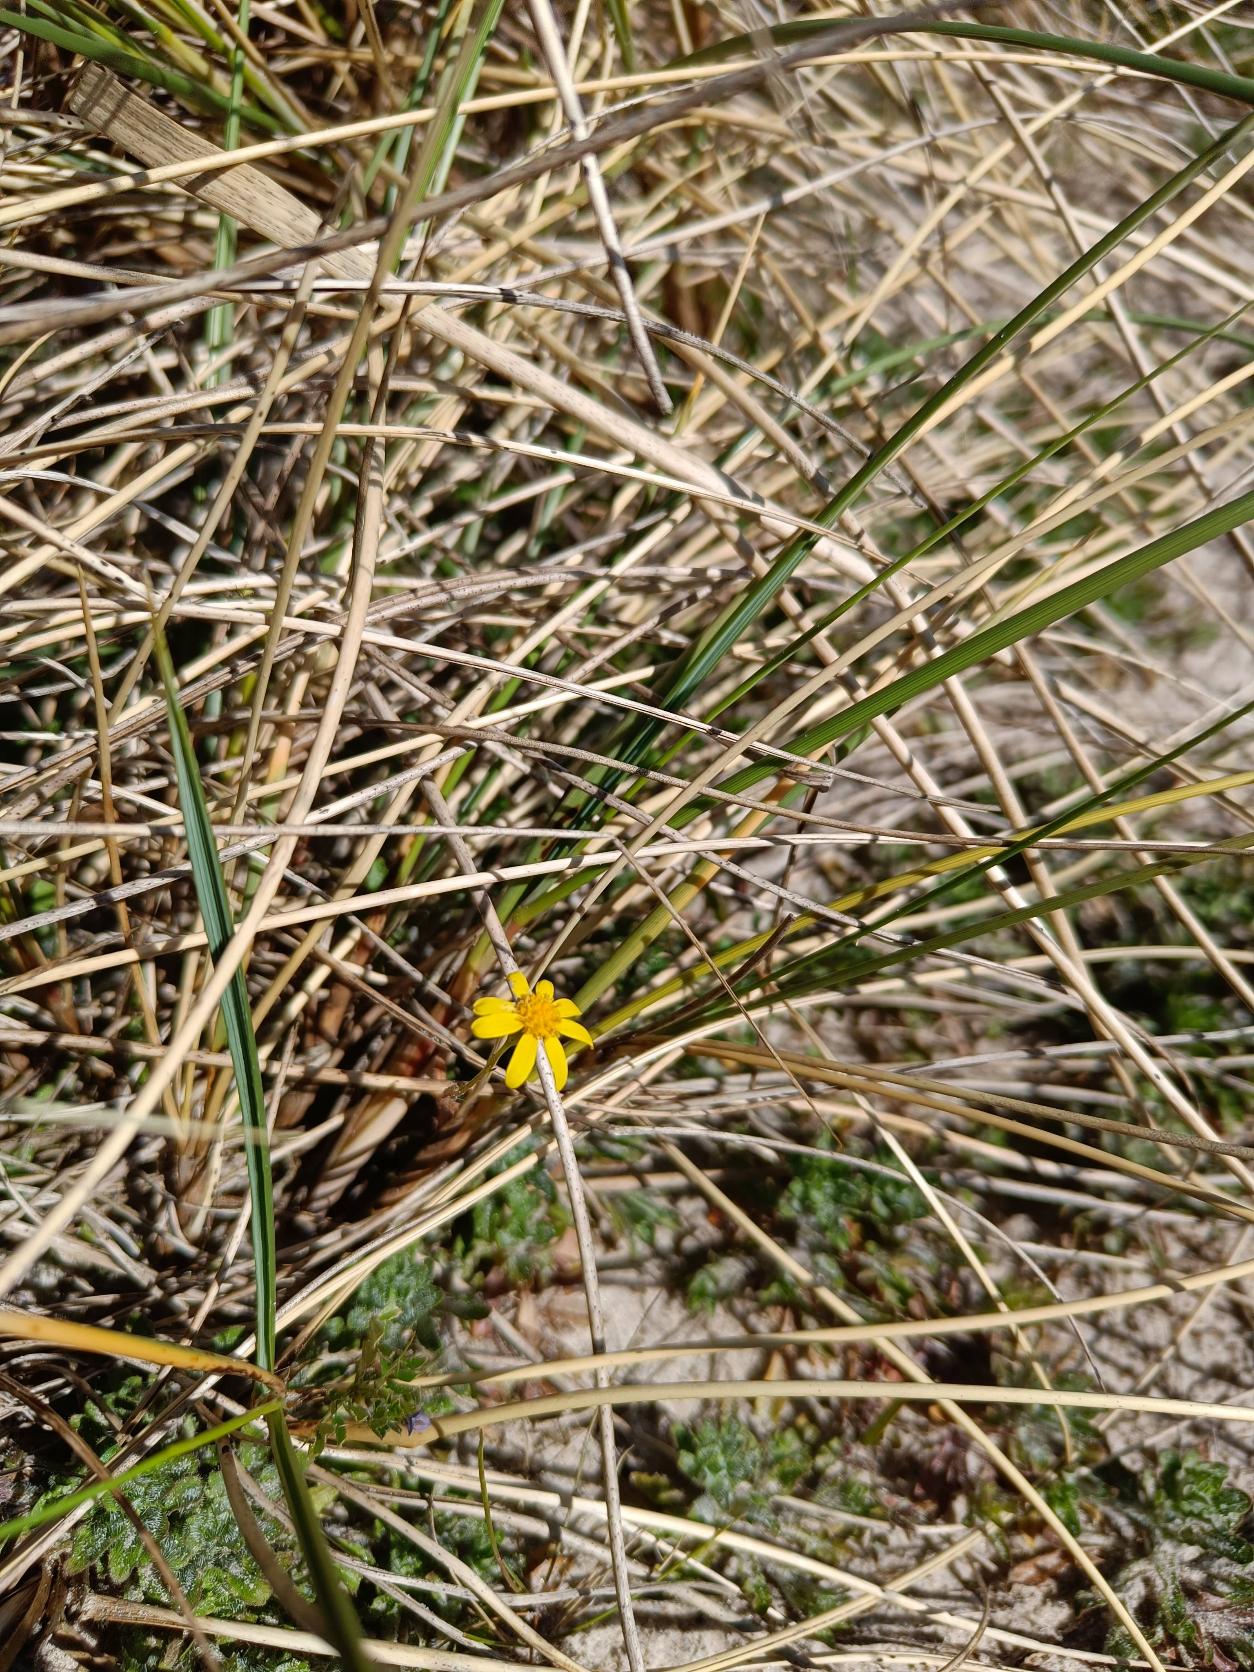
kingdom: Plantae
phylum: Tracheophyta
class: Magnoliopsida
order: Asterales
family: Asteraceae
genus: Senecio
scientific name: Senecio leucanthemifolius
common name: Vår-brandbæger
